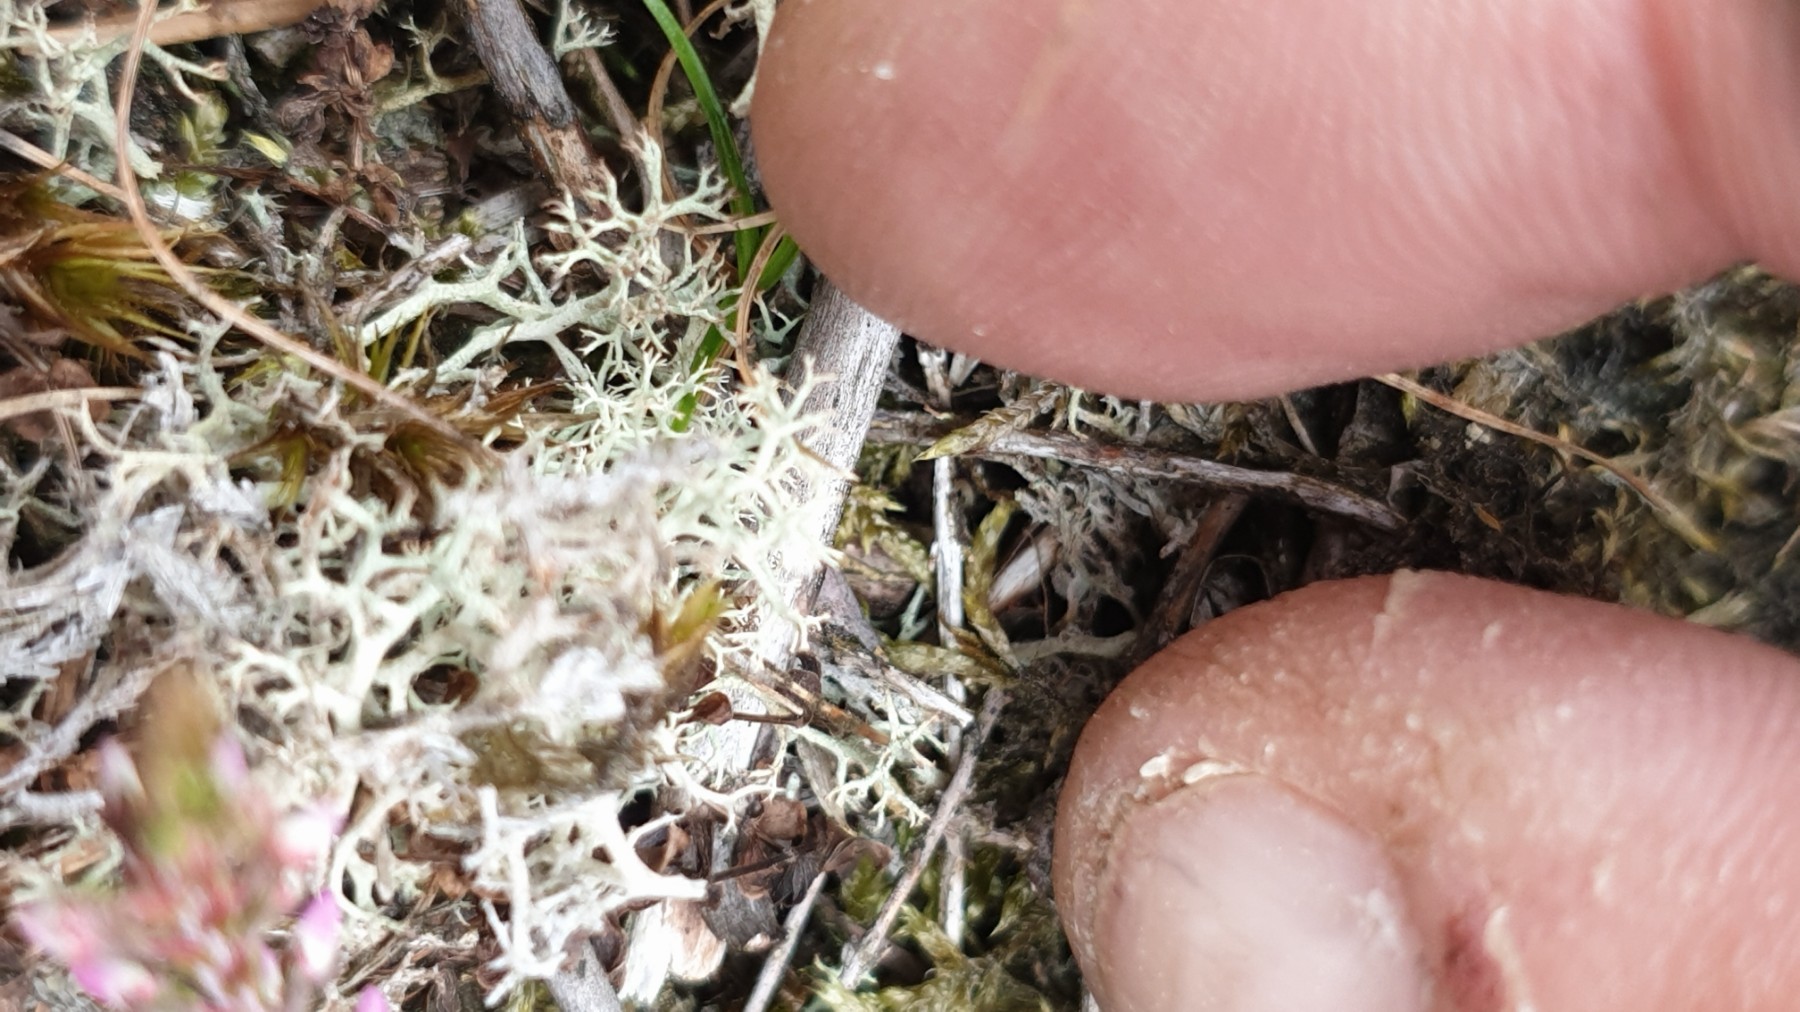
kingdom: Fungi
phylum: Ascomycota
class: Lecanoromycetes
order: Lecanorales
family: Cladoniaceae
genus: Cladonia
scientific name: Cladonia portentosa
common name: hede-rensdyrlav
